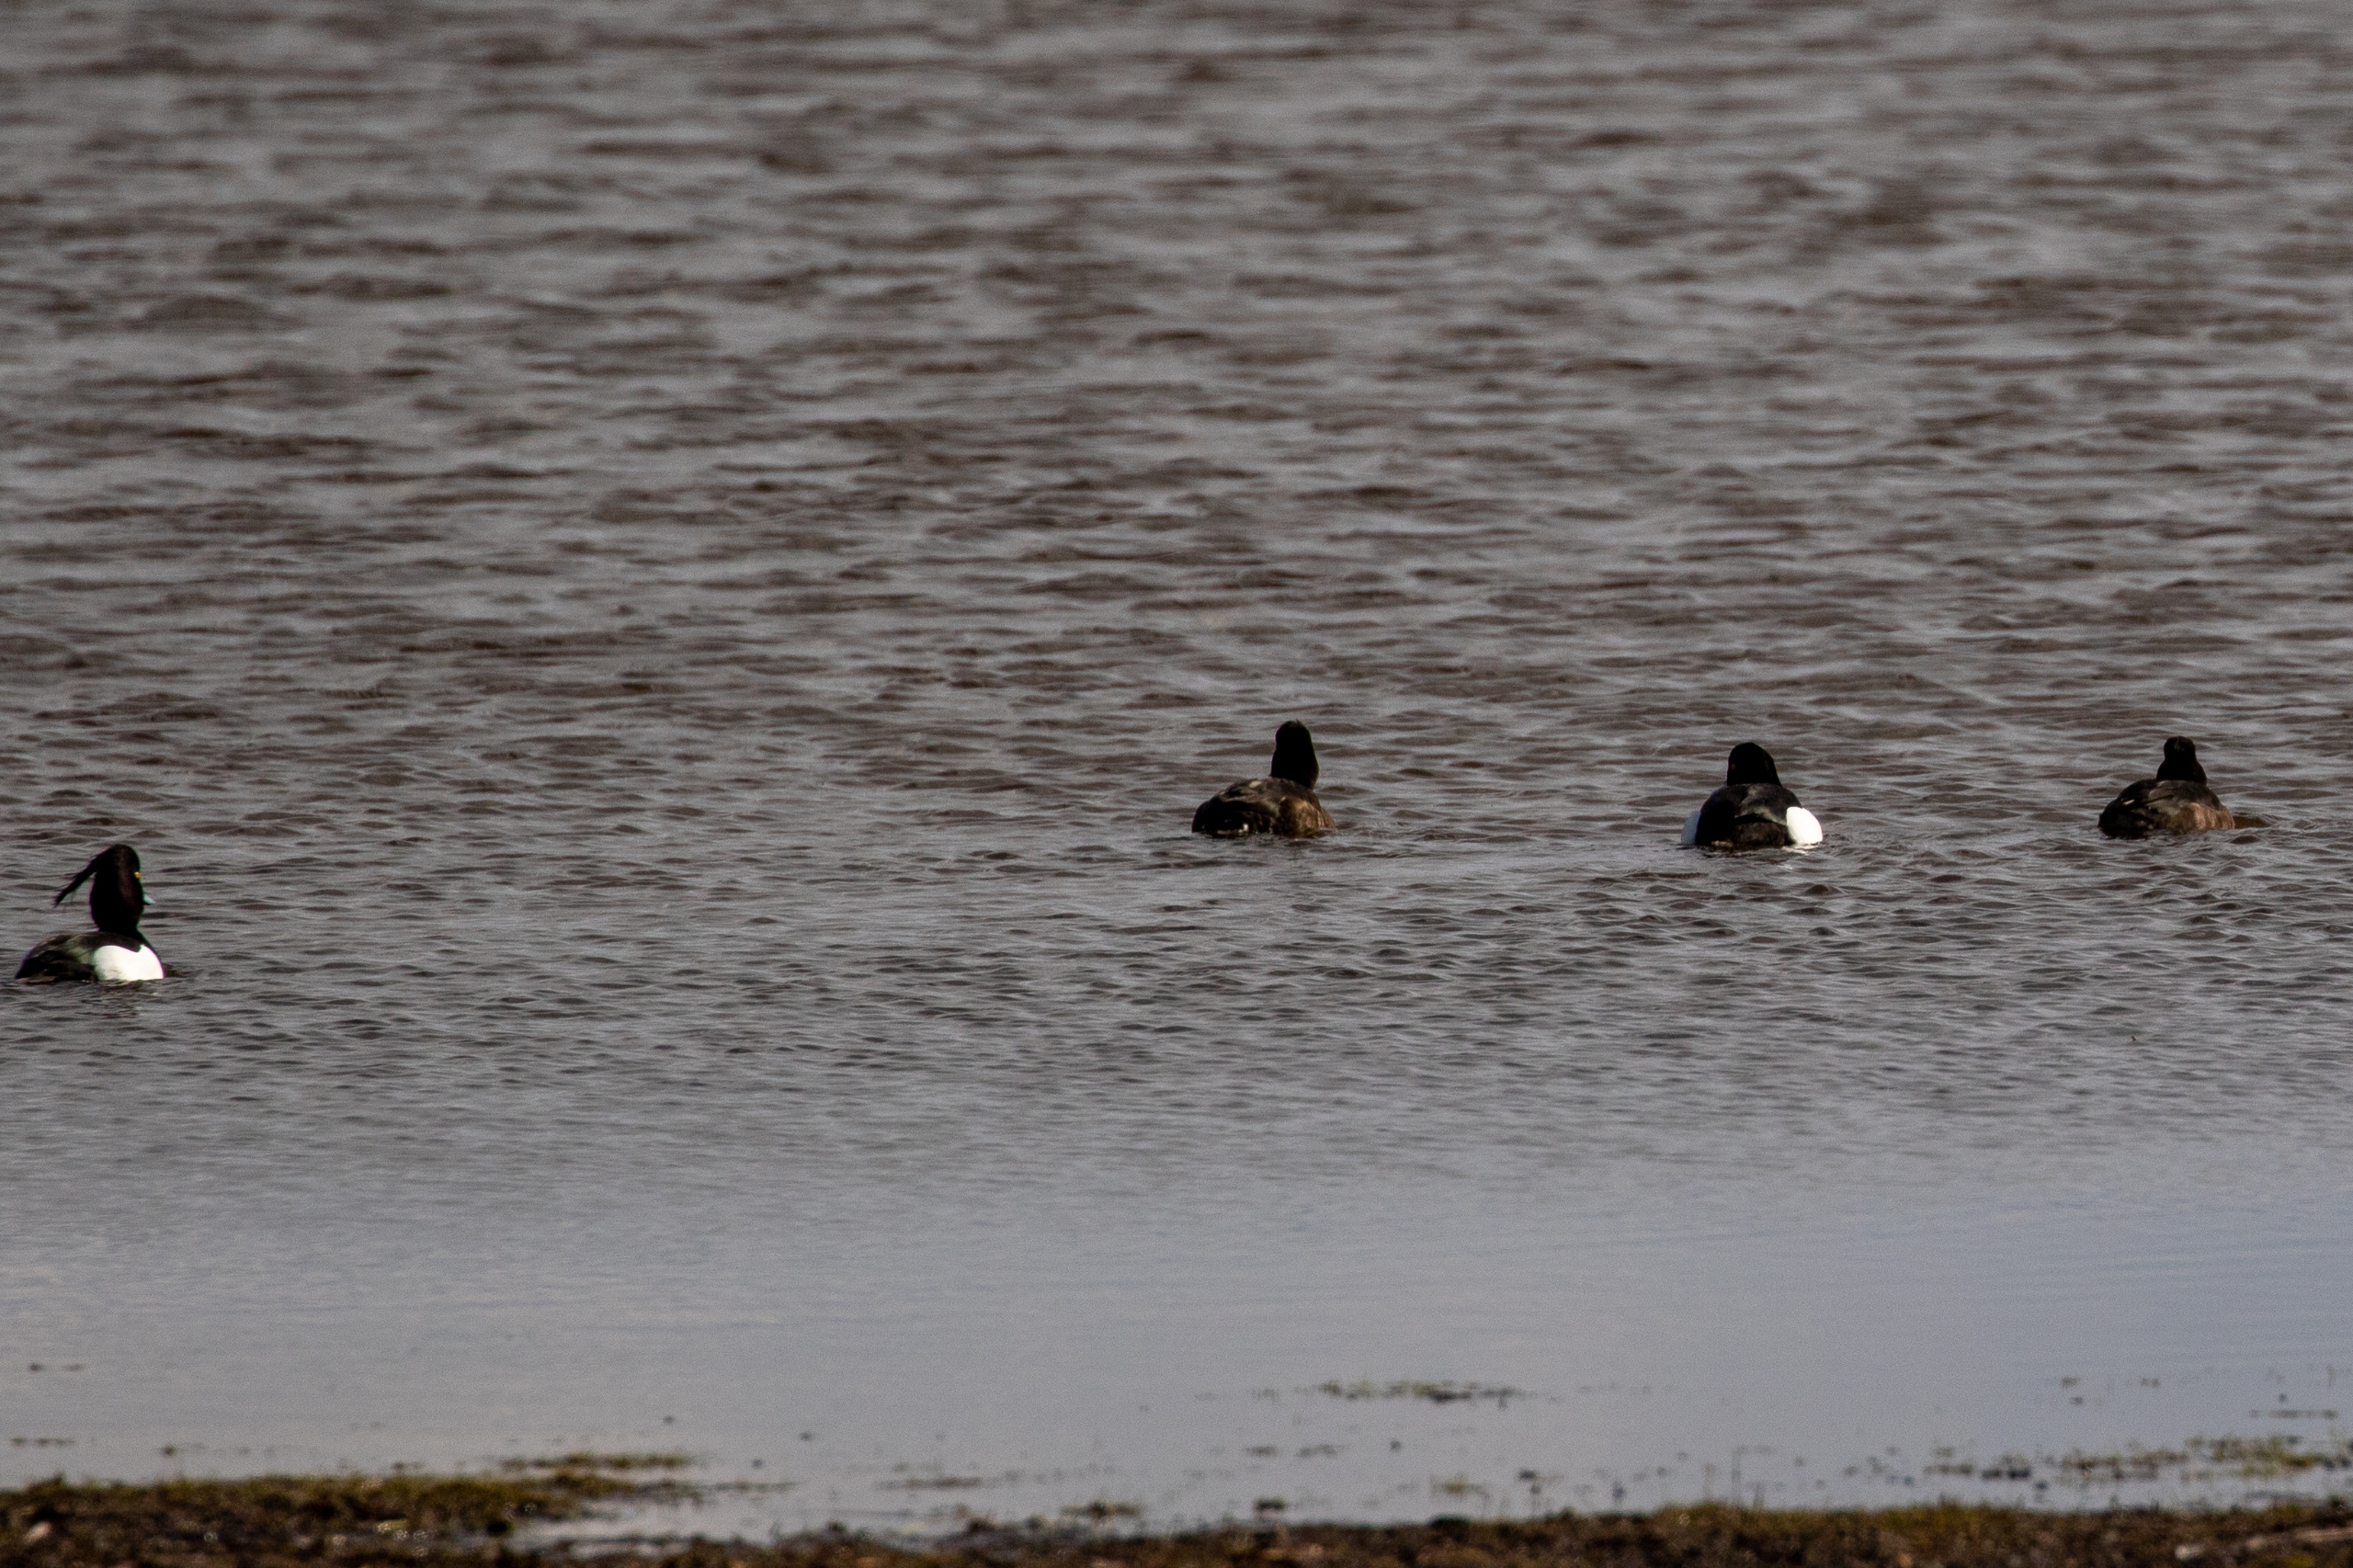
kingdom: Animalia
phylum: Chordata
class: Aves
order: Anseriformes
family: Anatidae
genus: Aythya
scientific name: Aythya fuligula
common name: Troldand
